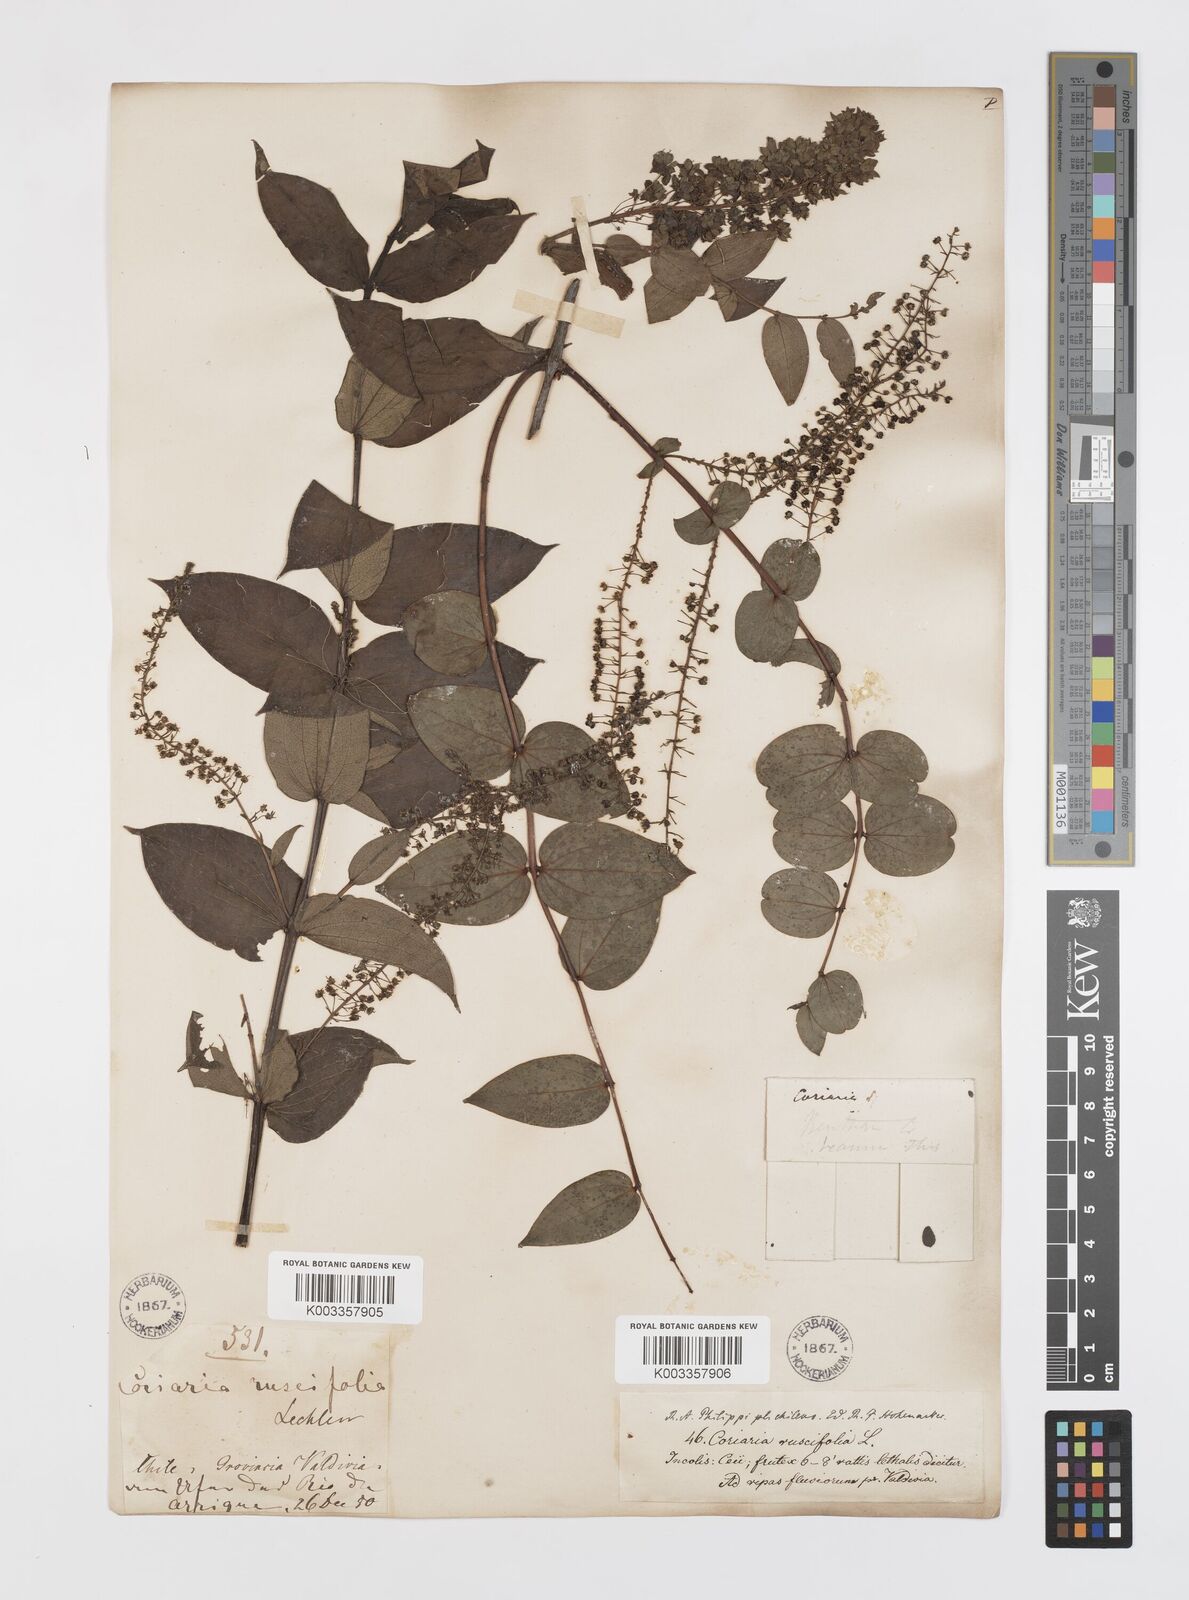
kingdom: Plantae
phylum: Tracheophyta
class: Magnoliopsida
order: Cucurbitales
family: Coriariaceae
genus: Coriaria
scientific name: Coriaria ruscifolia
